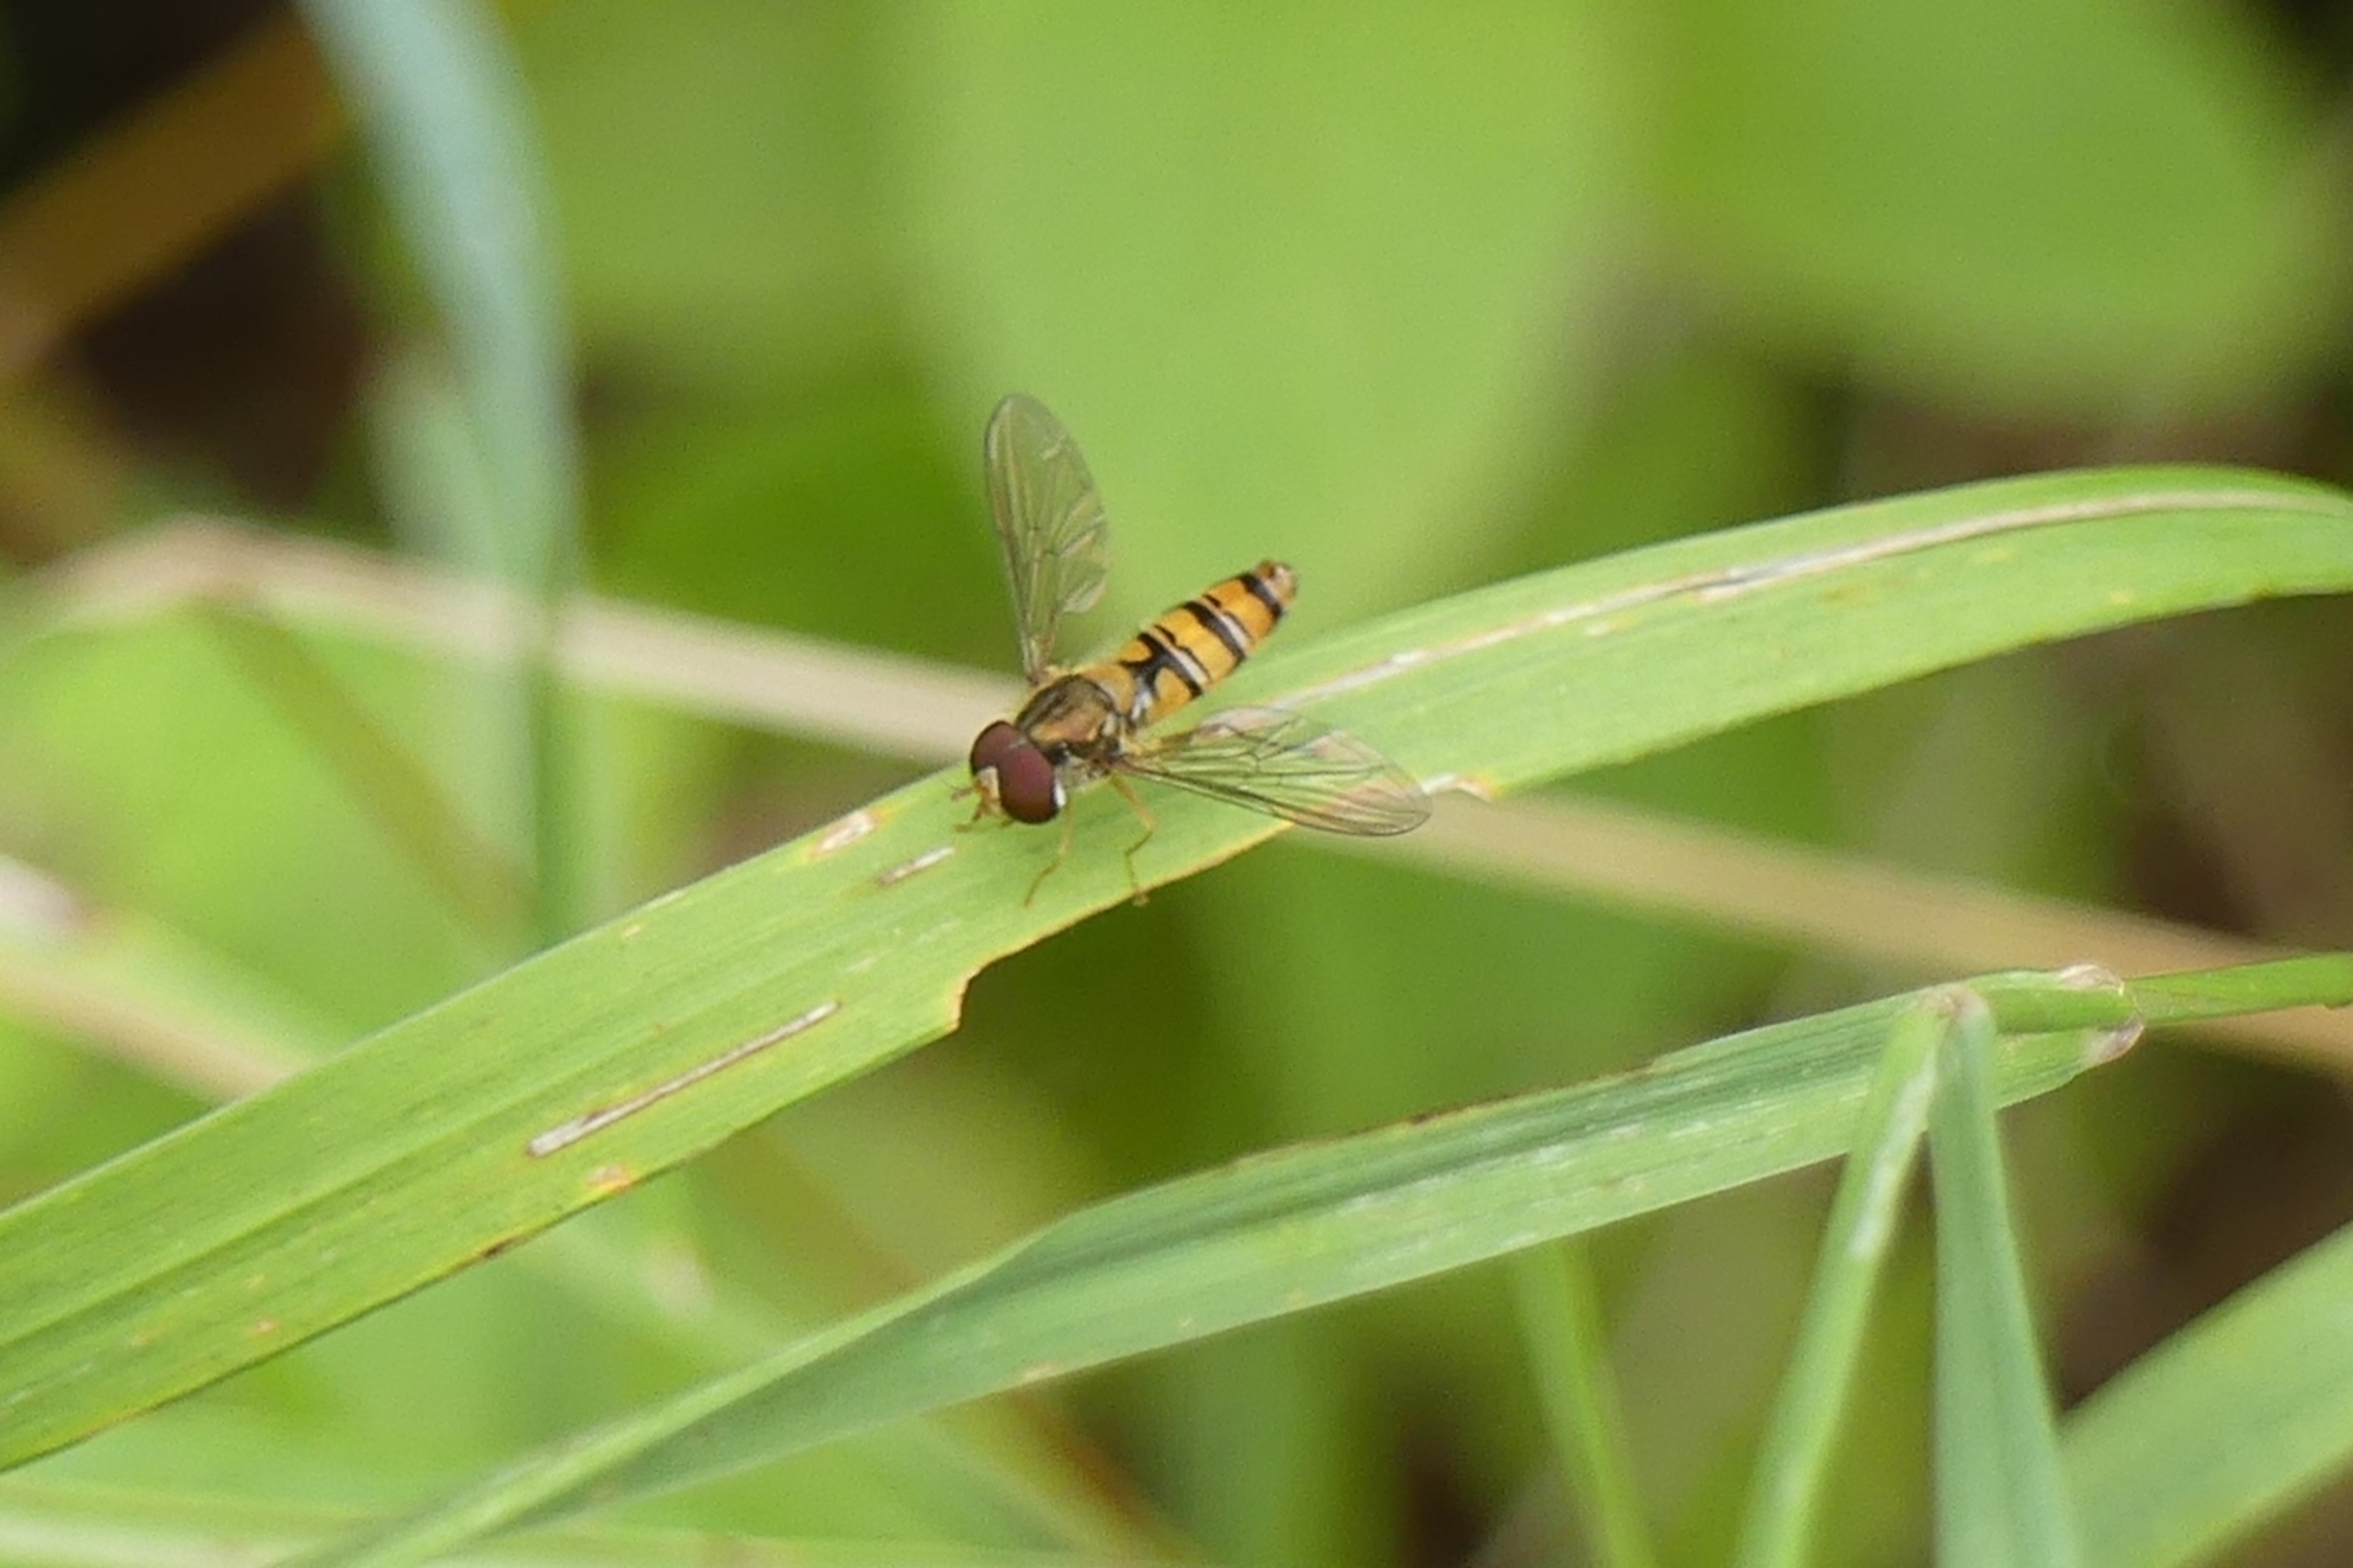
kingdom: Animalia
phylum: Arthropoda
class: Insecta
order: Diptera
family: Syrphidae
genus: Episyrphus
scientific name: Episyrphus balteatus
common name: Dobbeltbåndet svirreflue
